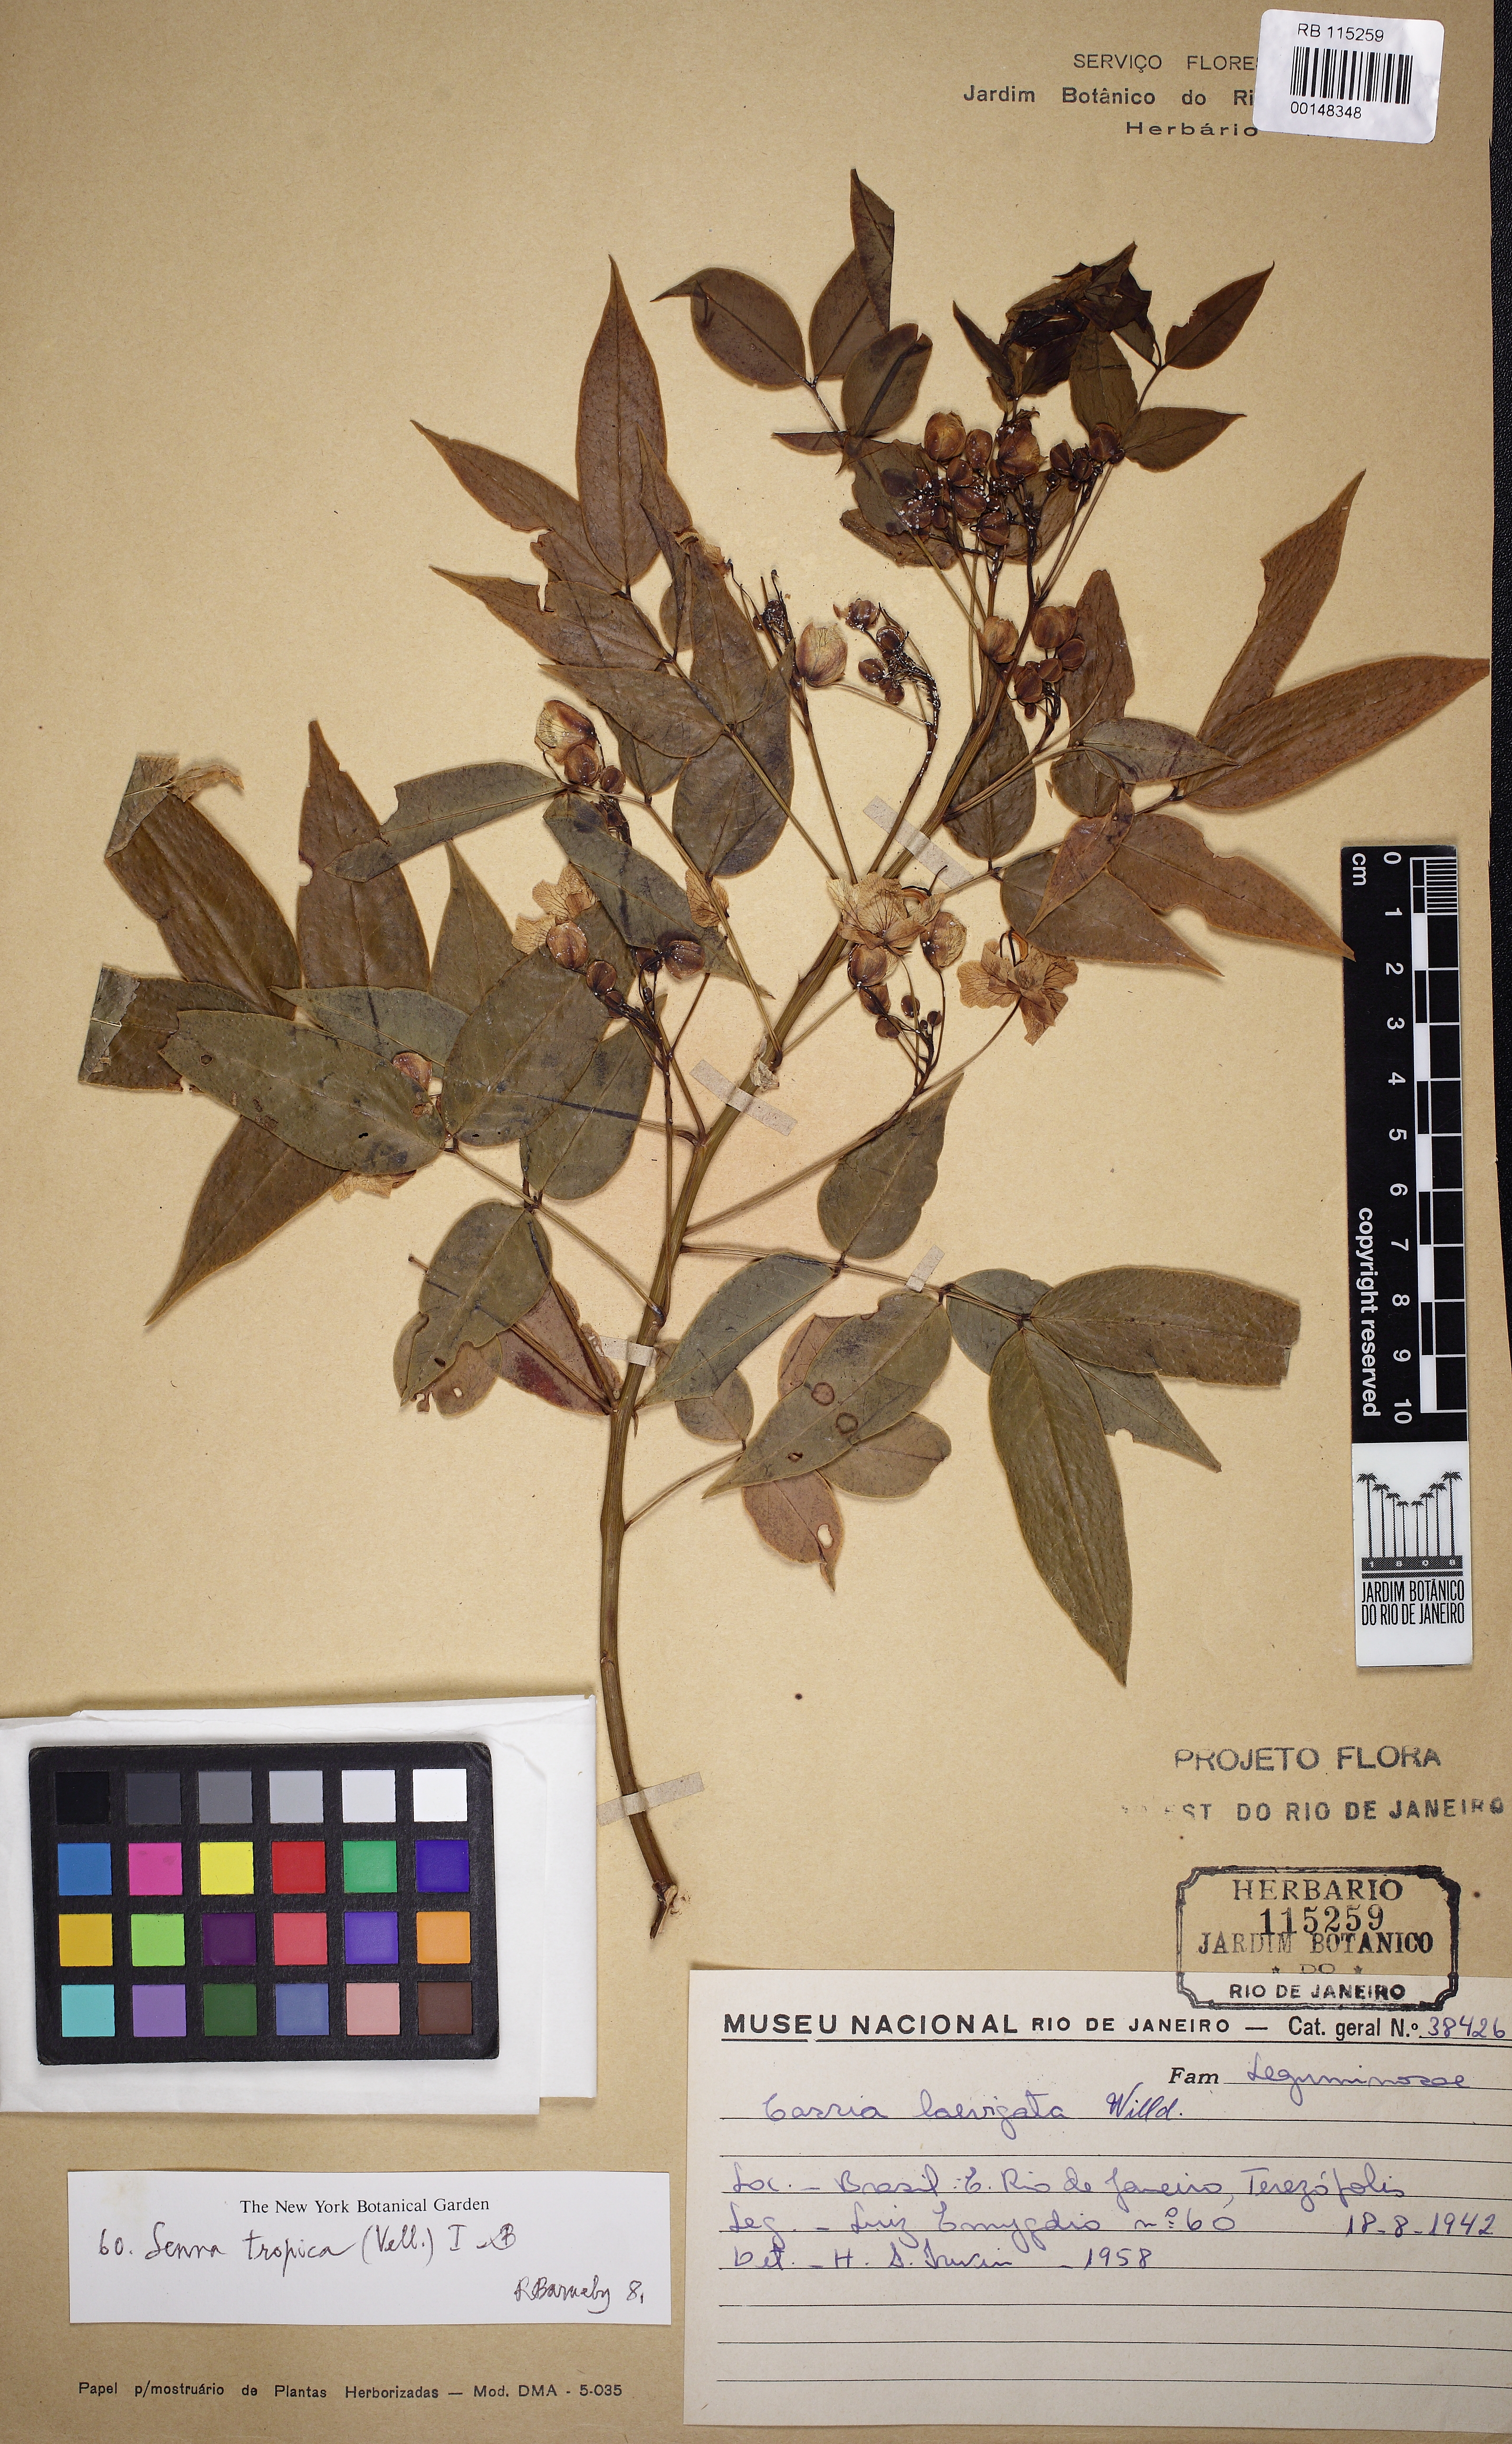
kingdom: Plantae
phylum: Tracheophyta
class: Magnoliopsida
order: Fabales
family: Fabaceae
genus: Senna
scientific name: Senna tropica
